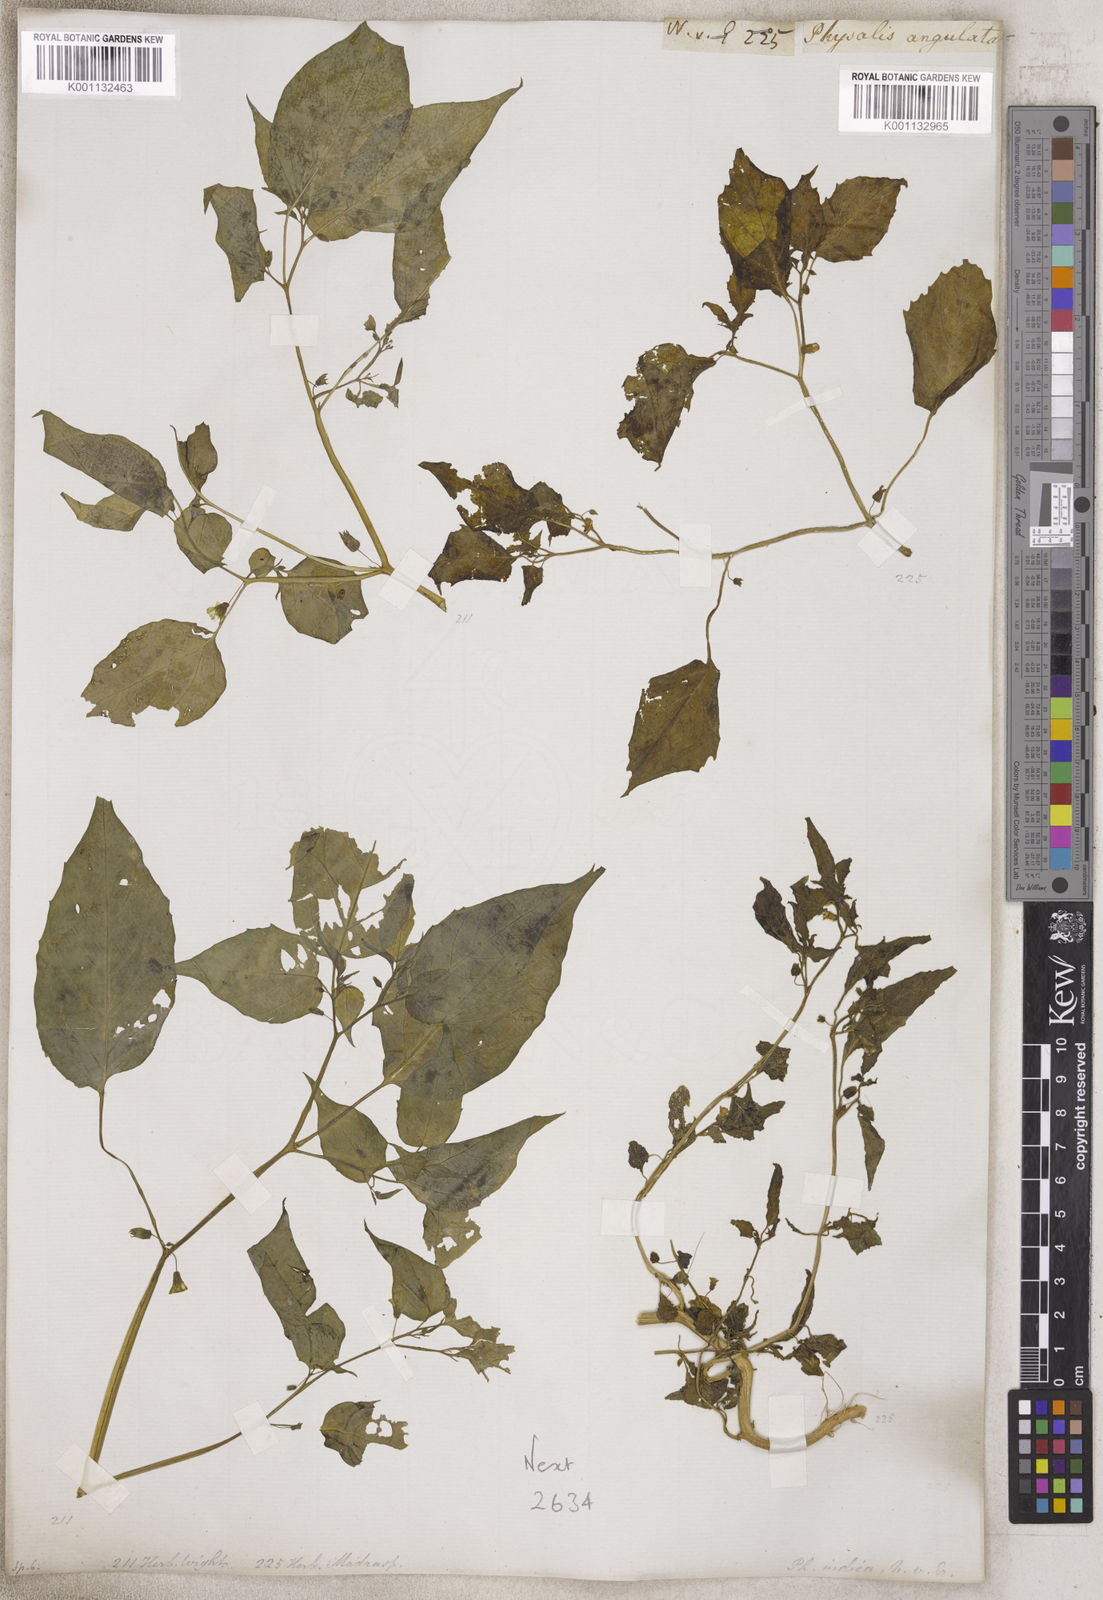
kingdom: Plantae
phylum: Tracheophyta
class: Magnoliopsida
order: Solanales
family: Solanaceae
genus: Physalis
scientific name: Physalis
